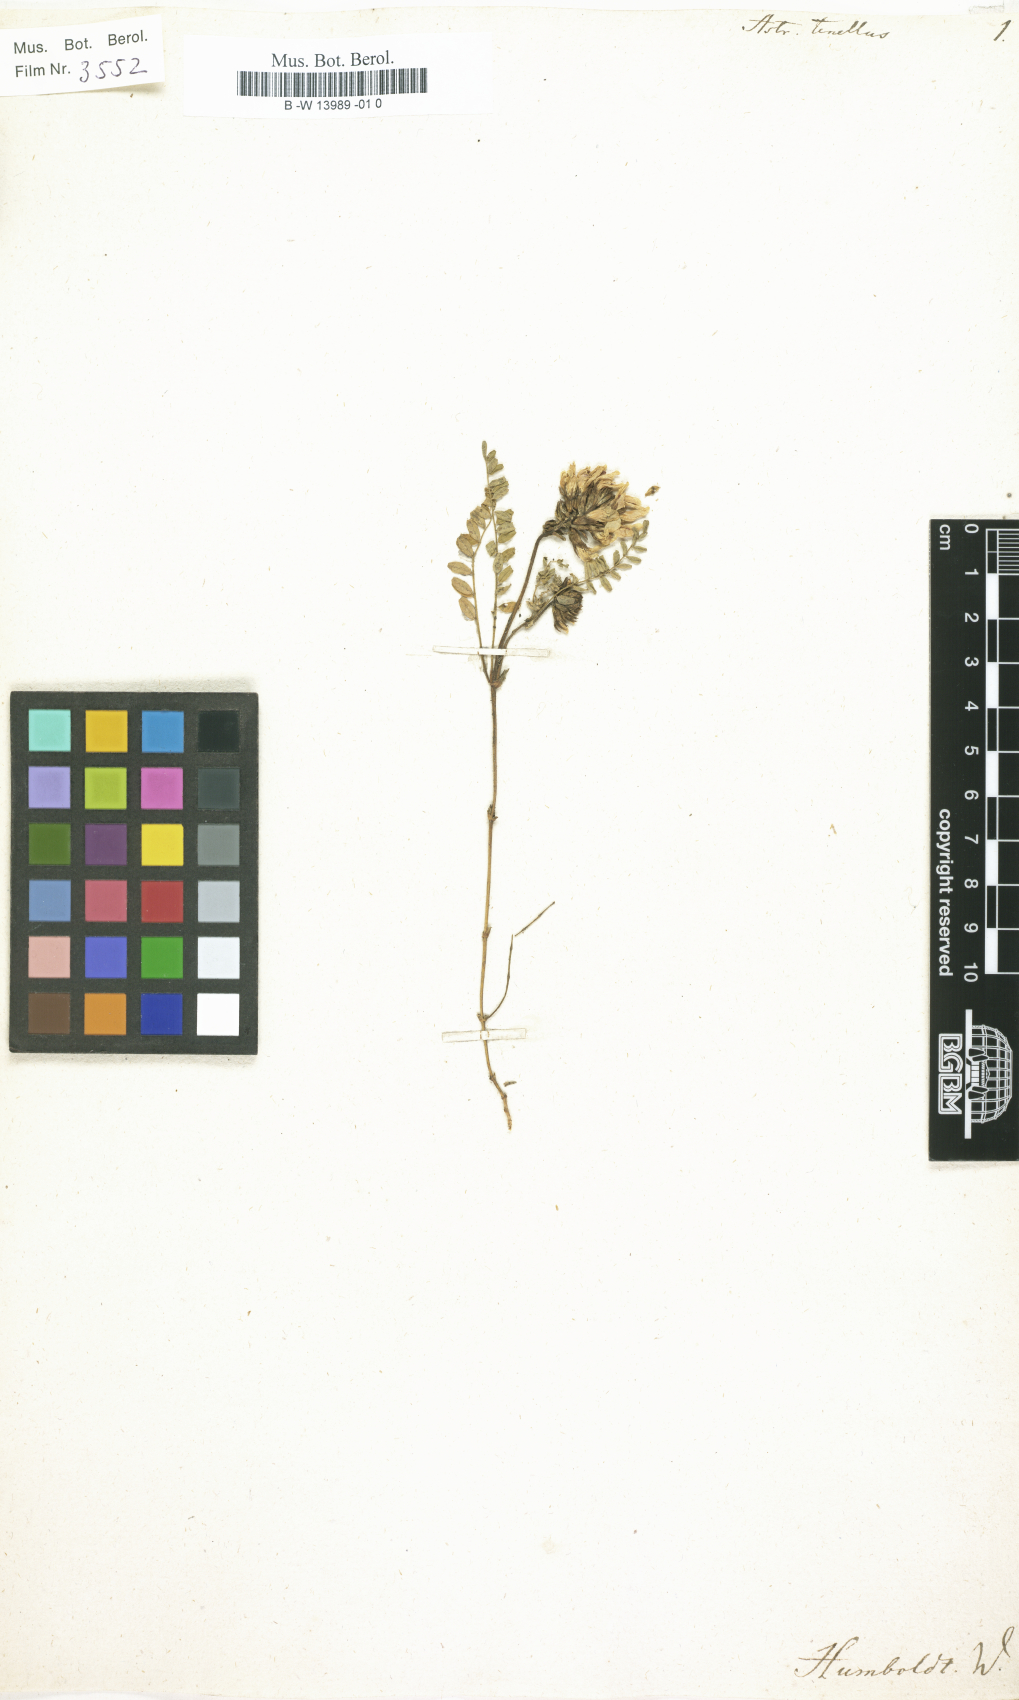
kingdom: Plantae
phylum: Tracheophyta
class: Magnoliopsida
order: Fabales
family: Fabaceae
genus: Astragalus
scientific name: Astragalus tenellus
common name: Pulse milk-vetch
